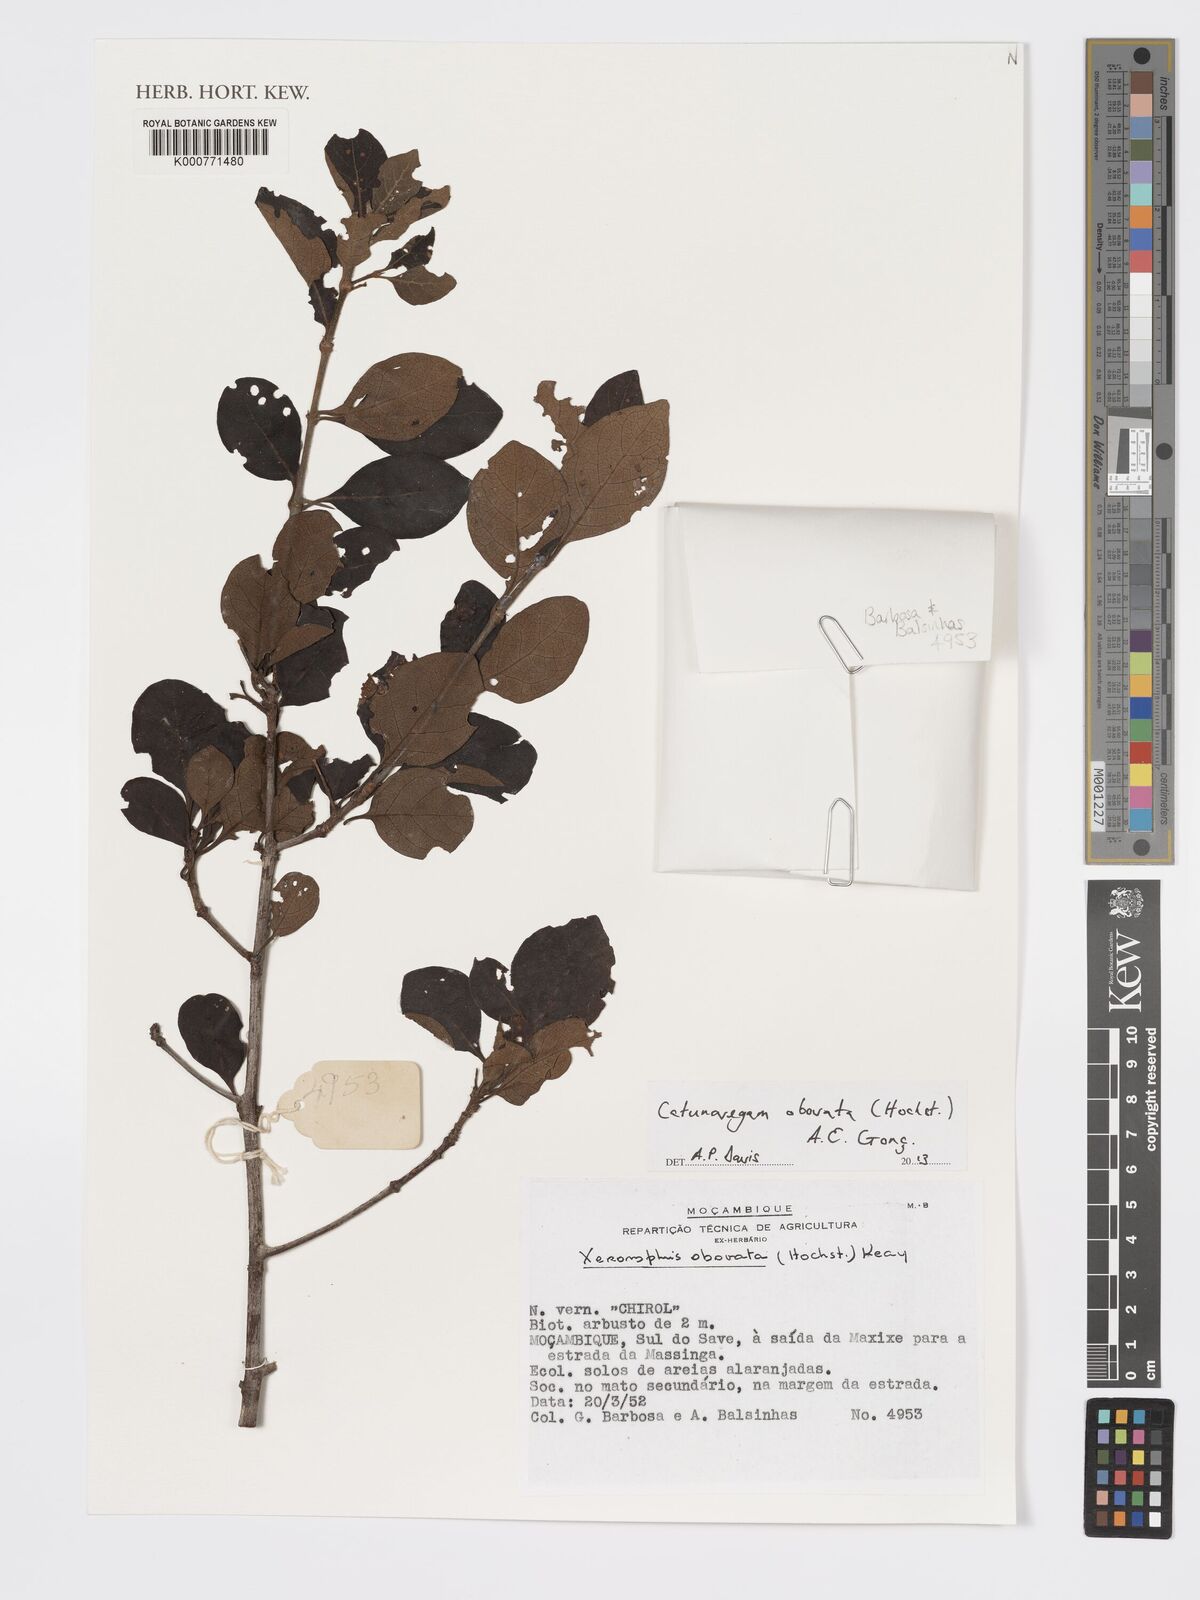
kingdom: Plantae
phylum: Tracheophyta
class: Magnoliopsida
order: Gentianales
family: Rubiaceae
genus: Catunaregam
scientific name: Catunaregam
